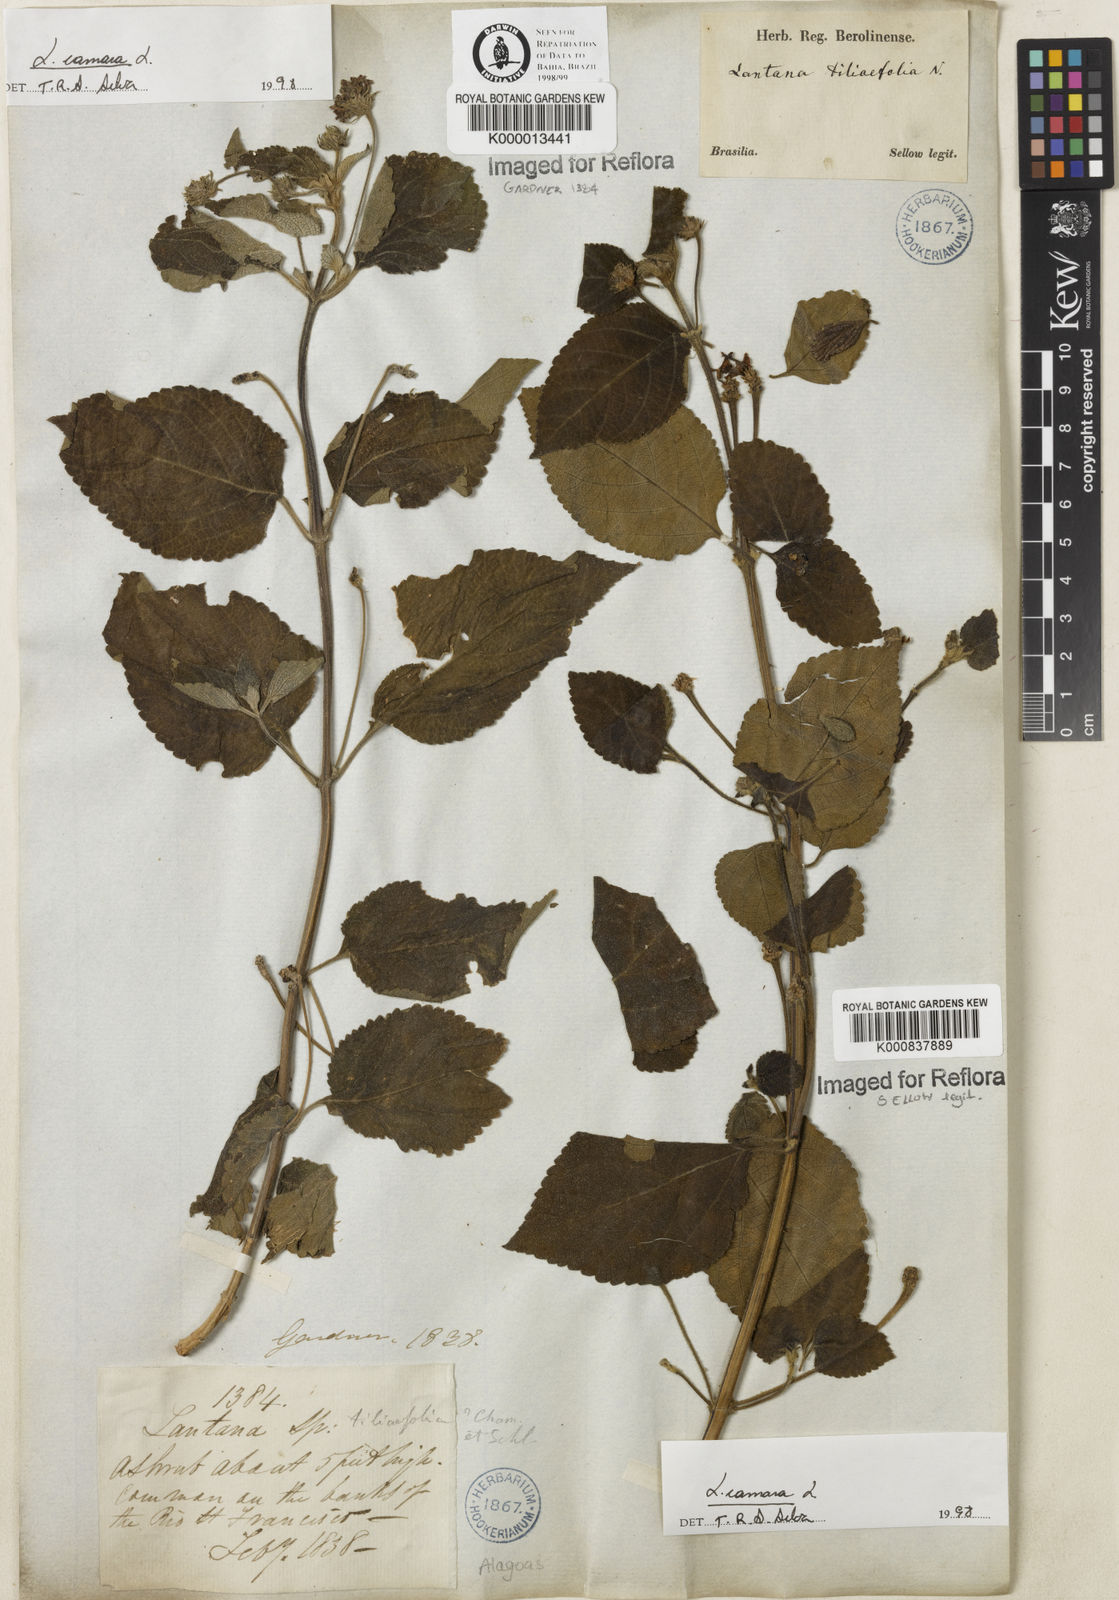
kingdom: Plantae
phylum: Tracheophyta
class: Magnoliopsida
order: Lamiales
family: Verbenaceae
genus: Lantana
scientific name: Lantana camara
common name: Lantana
